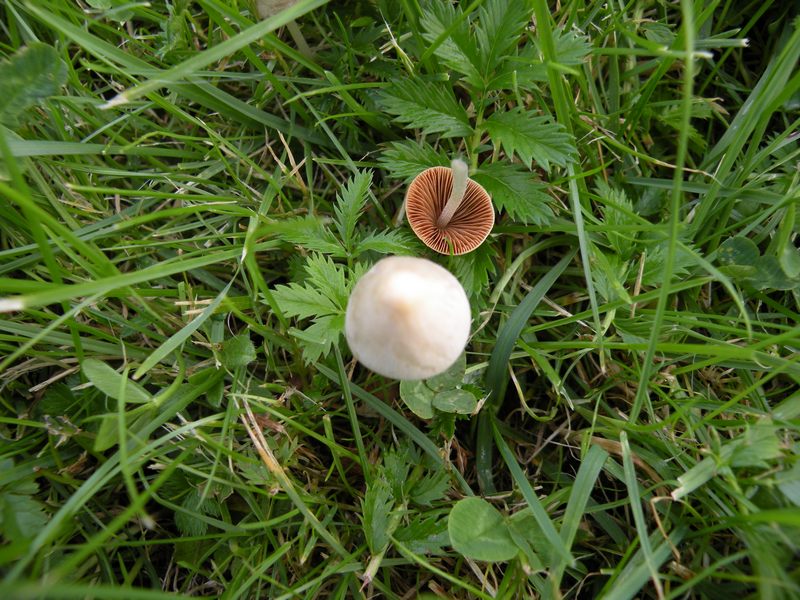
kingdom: Fungi
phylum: Basidiomycota
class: Agaricomycetes
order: Agaricales
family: Bolbitiaceae
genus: Conocybe
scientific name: Conocybe apala
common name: mælkehvid keglehat
